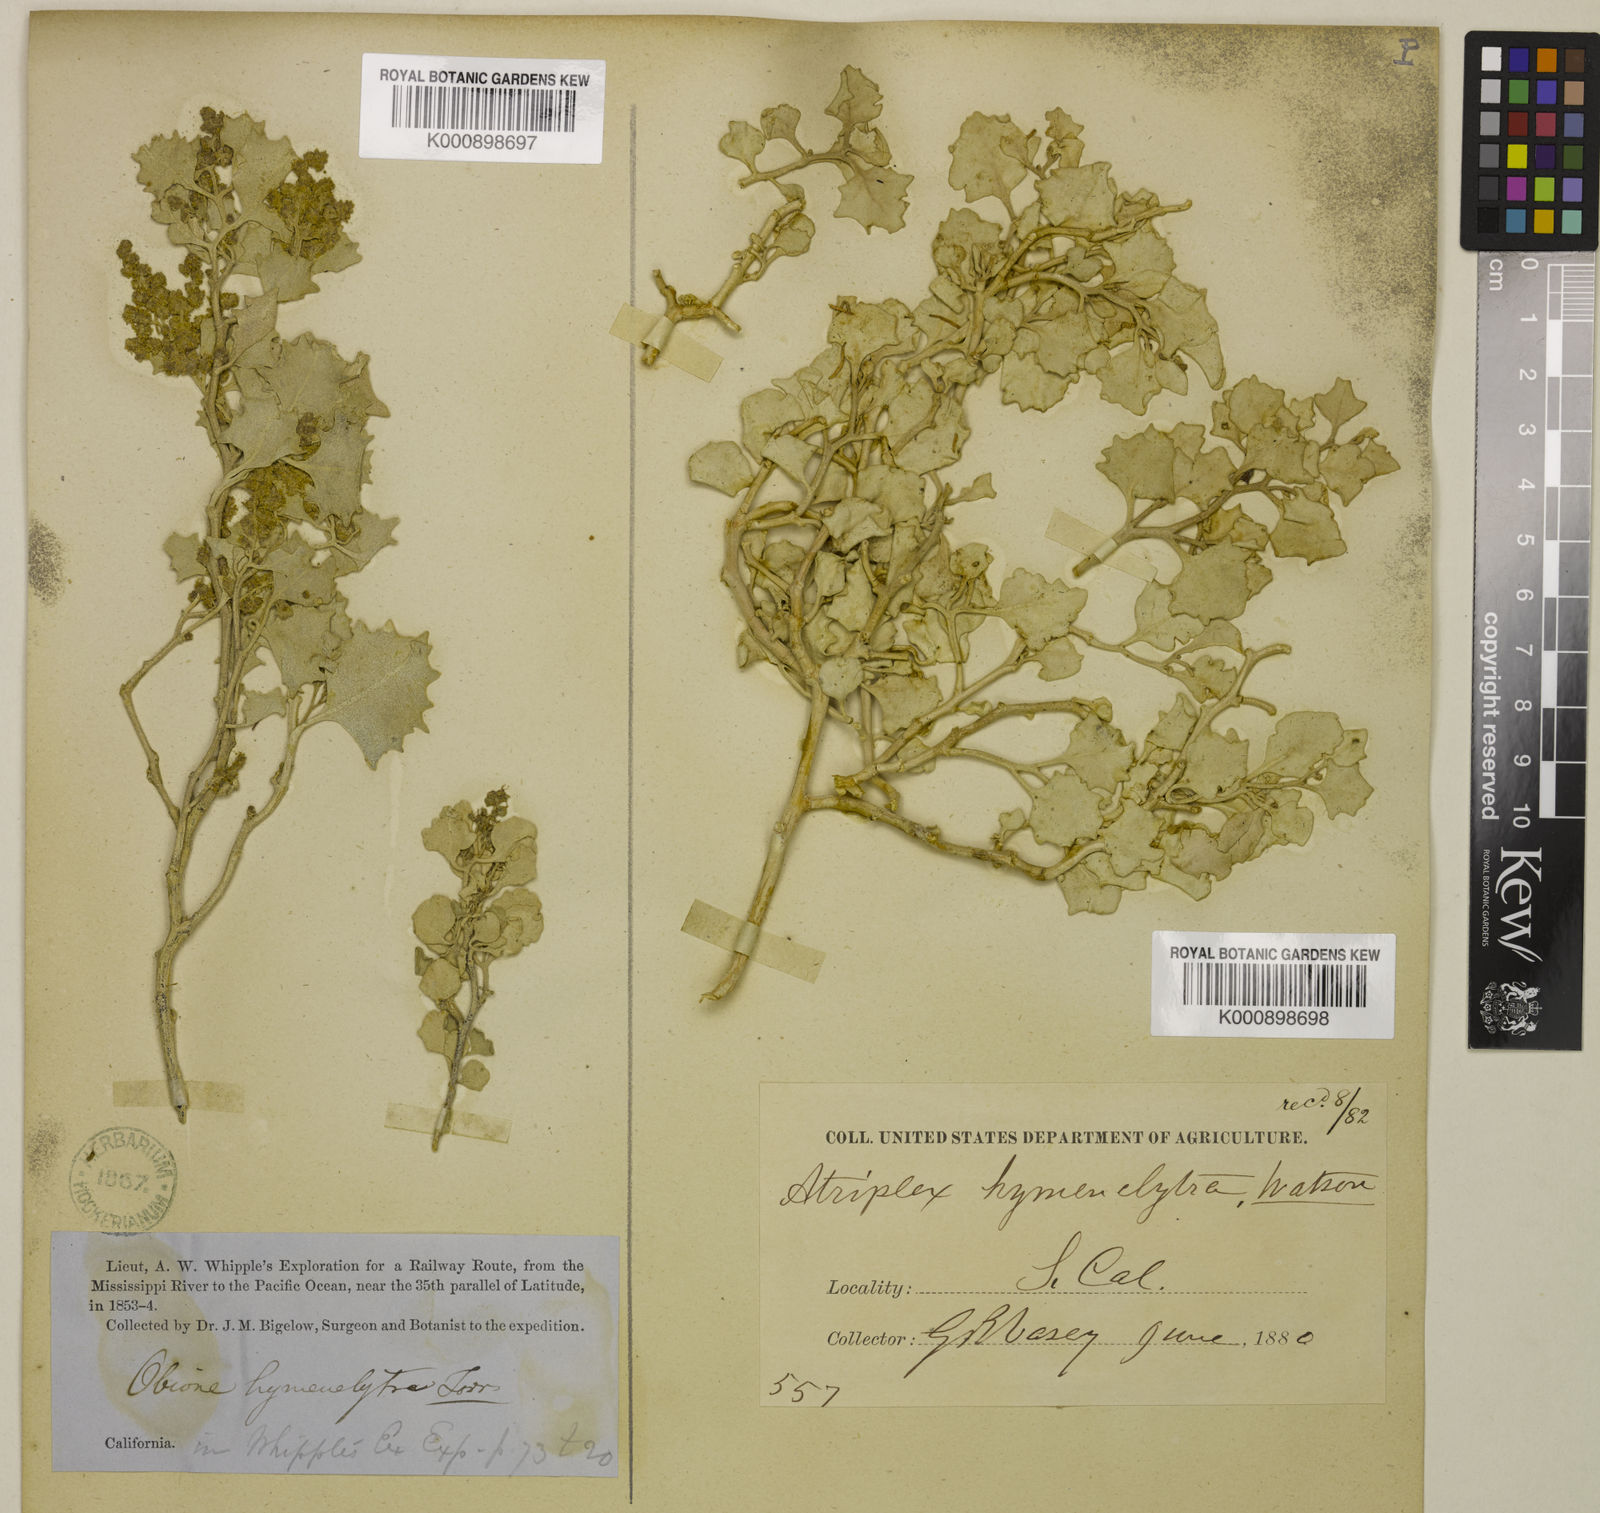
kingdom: Plantae
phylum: Tracheophyta
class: Magnoliopsida
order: Caryophyllales
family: Amaranthaceae
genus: Atriplex
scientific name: Atriplex hymenelytra
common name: Desert-holly
